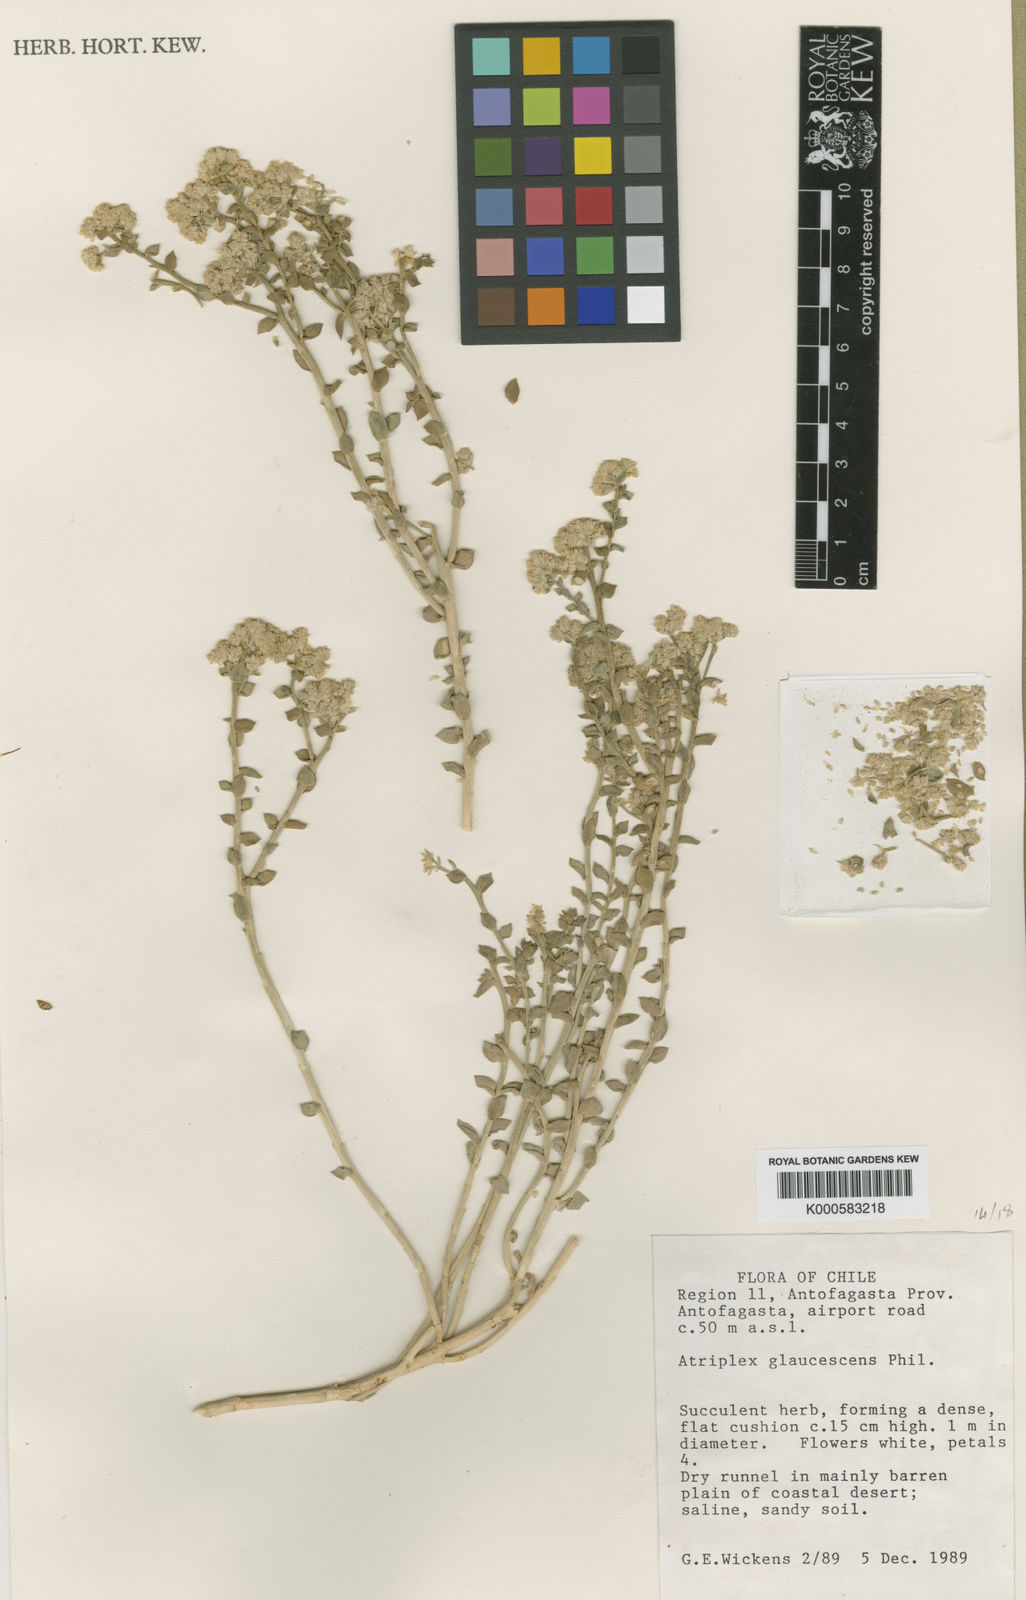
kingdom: Plantae
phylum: Tracheophyta
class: Magnoliopsida
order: Caryophyllales
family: Amaranthaceae
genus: Atriplex
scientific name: Atriplex glaucescens
